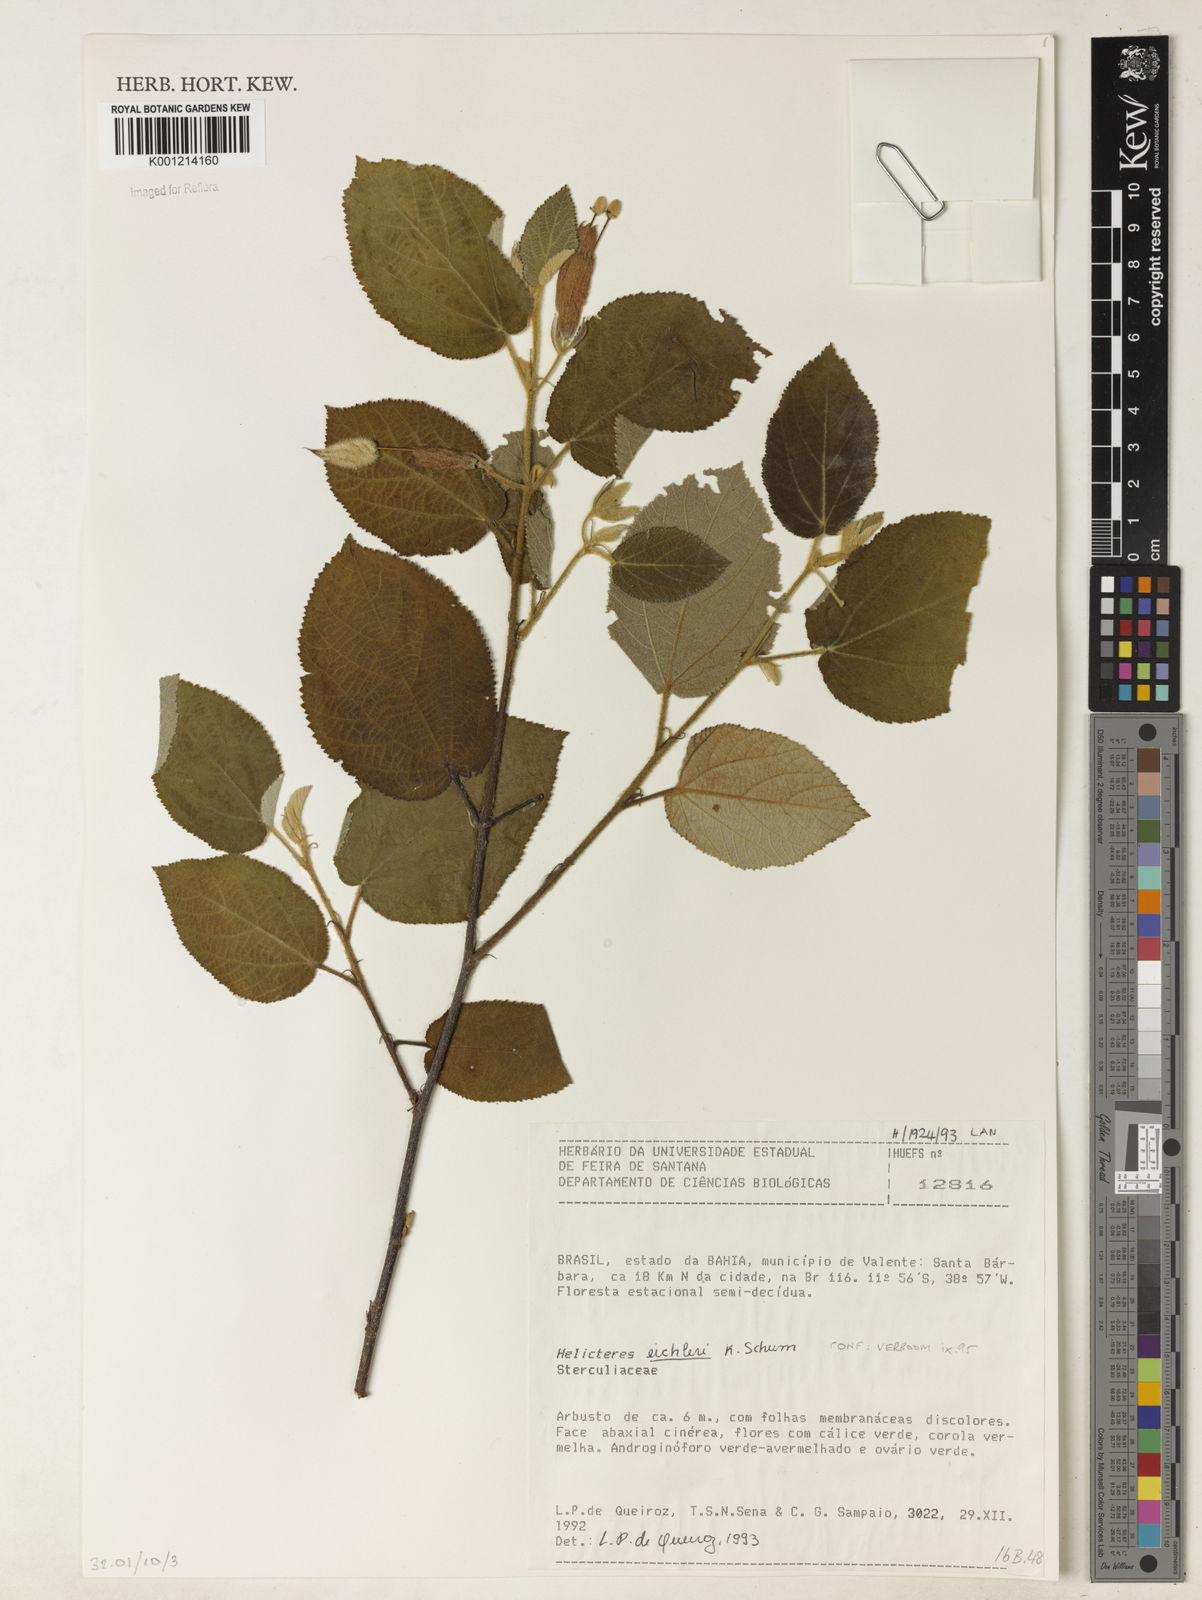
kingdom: Plantae
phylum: Tracheophyta
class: Magnoliopsida
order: Malvales
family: Malvaceae
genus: Helicteres
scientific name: Helicteres eichleri
